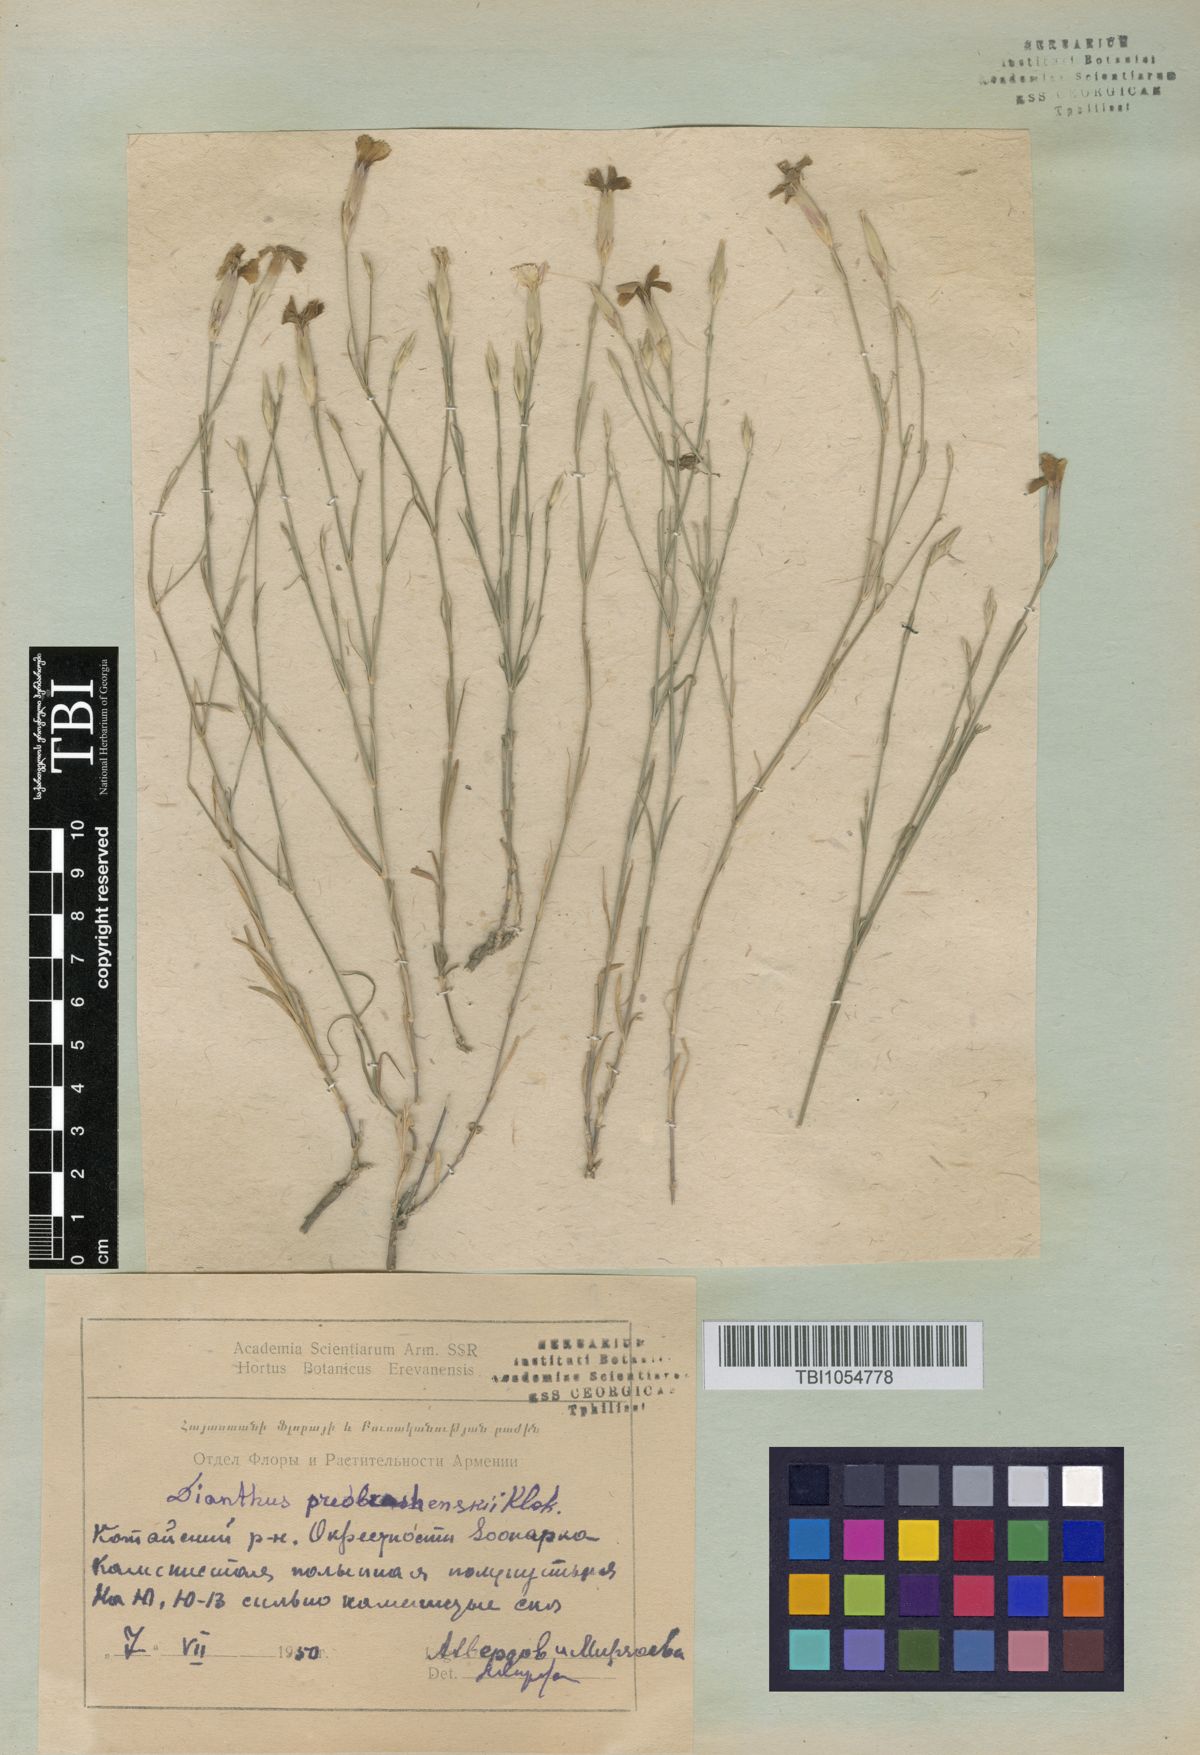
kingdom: Plantae
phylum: Tracheophyta
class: Magnoliopsida
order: Caryophyllales
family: Caryophyllaceae
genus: Dianthus
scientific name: Dianthus bicolor
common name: Bicolour pink
